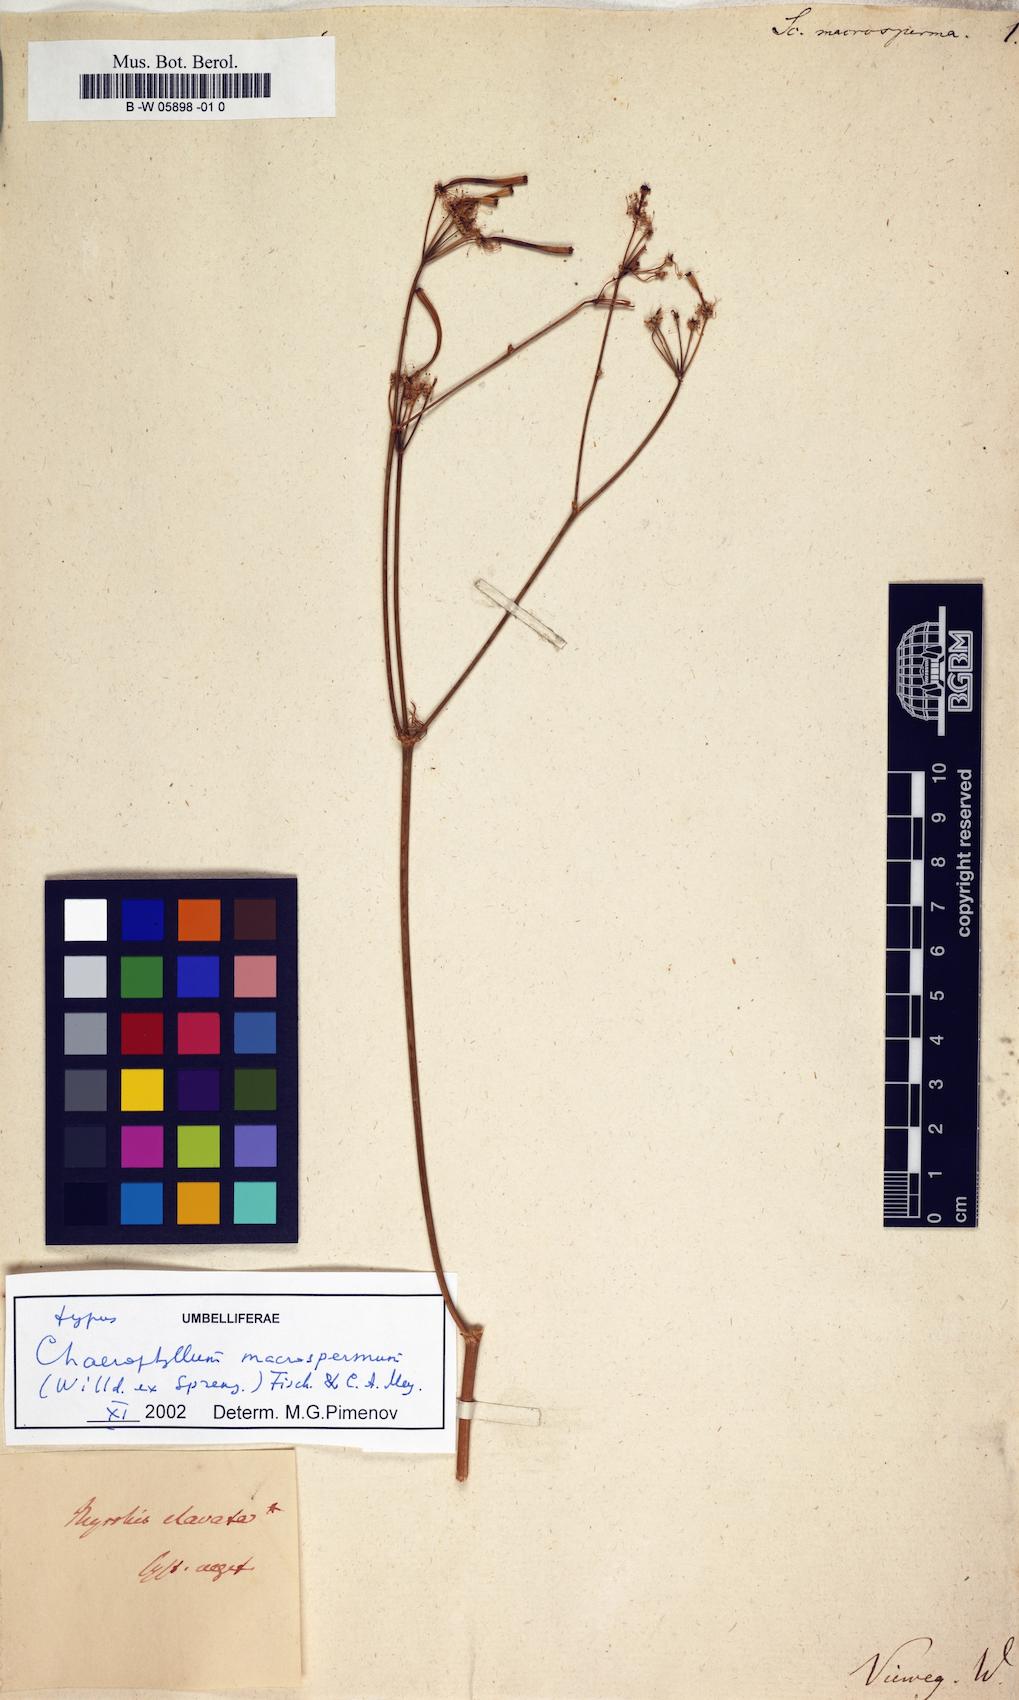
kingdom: Plantae
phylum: Tracheophyta
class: Magnoliopsida
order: Apiales
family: Apiaceae
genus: Chaerophyllum
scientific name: Chaerophyllum macrospermum
